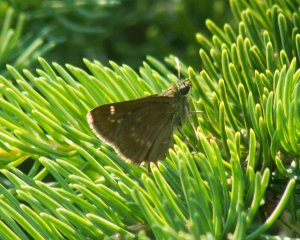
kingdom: Animalia
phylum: Arthropoda
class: Insecta
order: Lepidoptera
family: Hesperiidae
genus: Polites
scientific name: Polites egeremet
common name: Northern Broken-Dash
